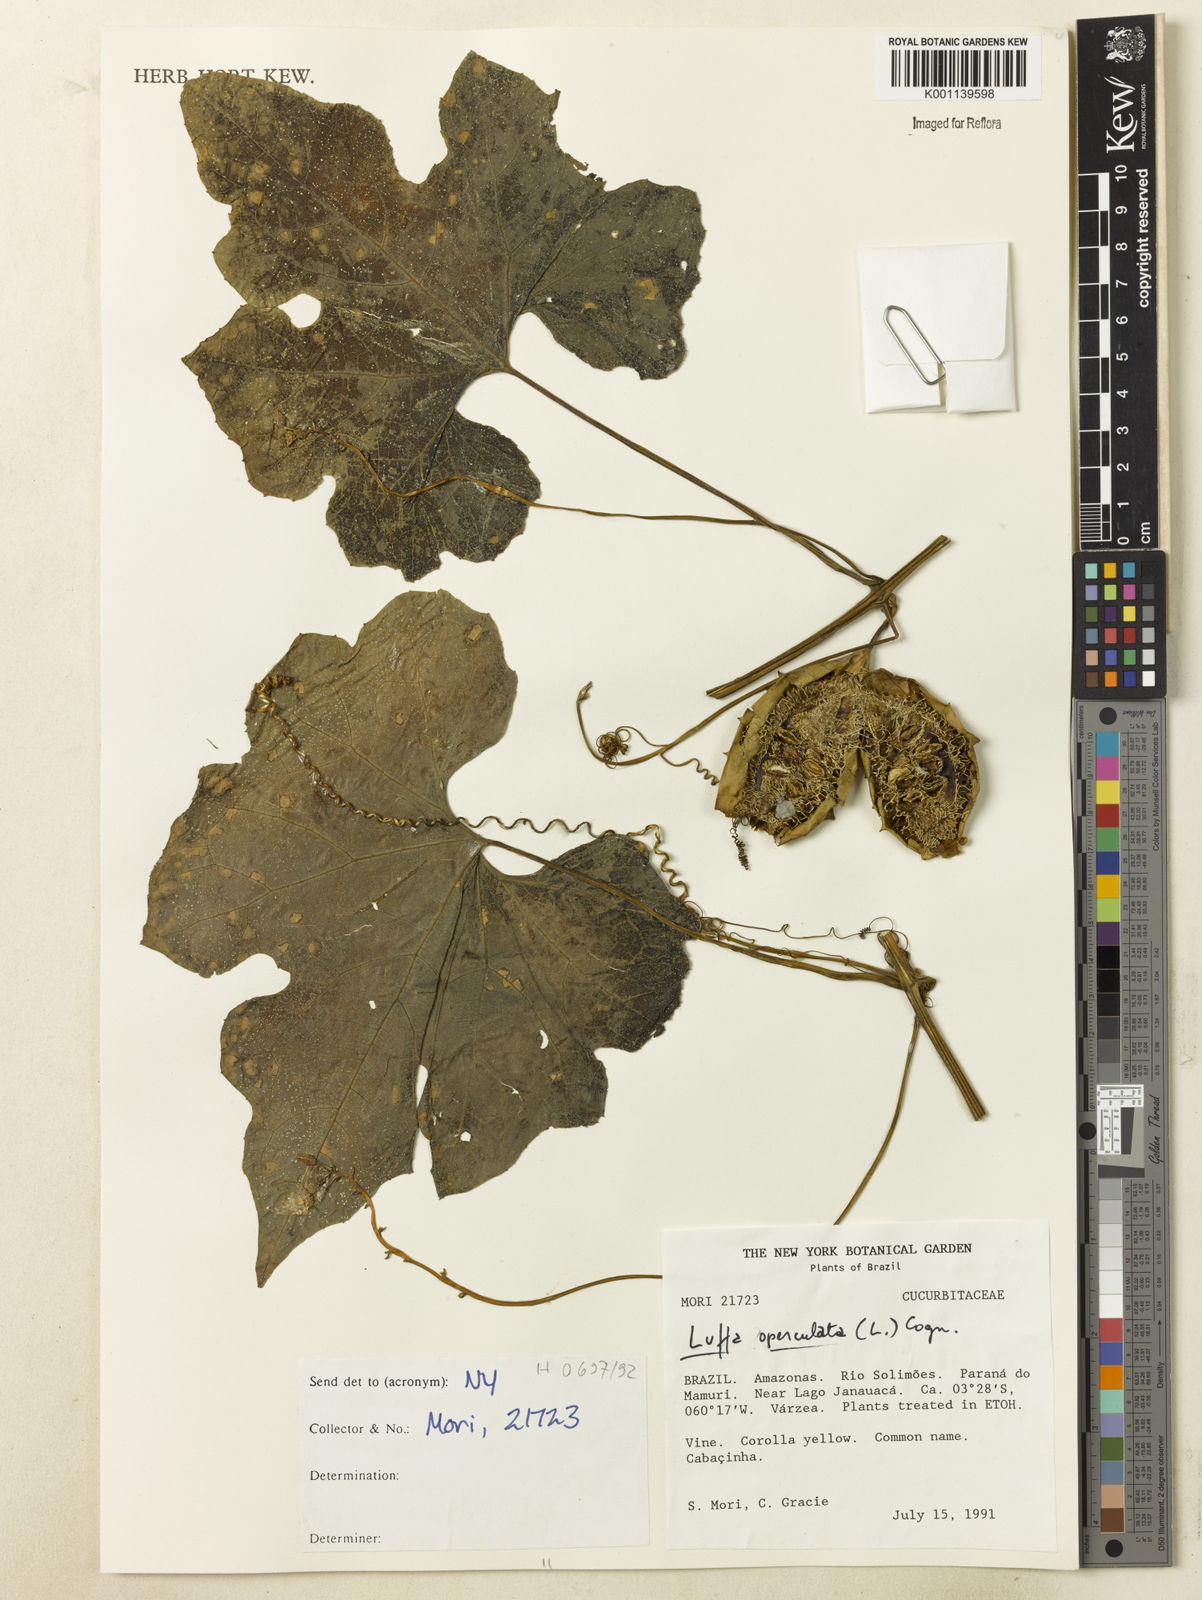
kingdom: Plantae
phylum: Tracheophyta
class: Magnoliopsida
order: Cucurbitales
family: Cucurbitaceae
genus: Luffa
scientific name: Luffa operculata
